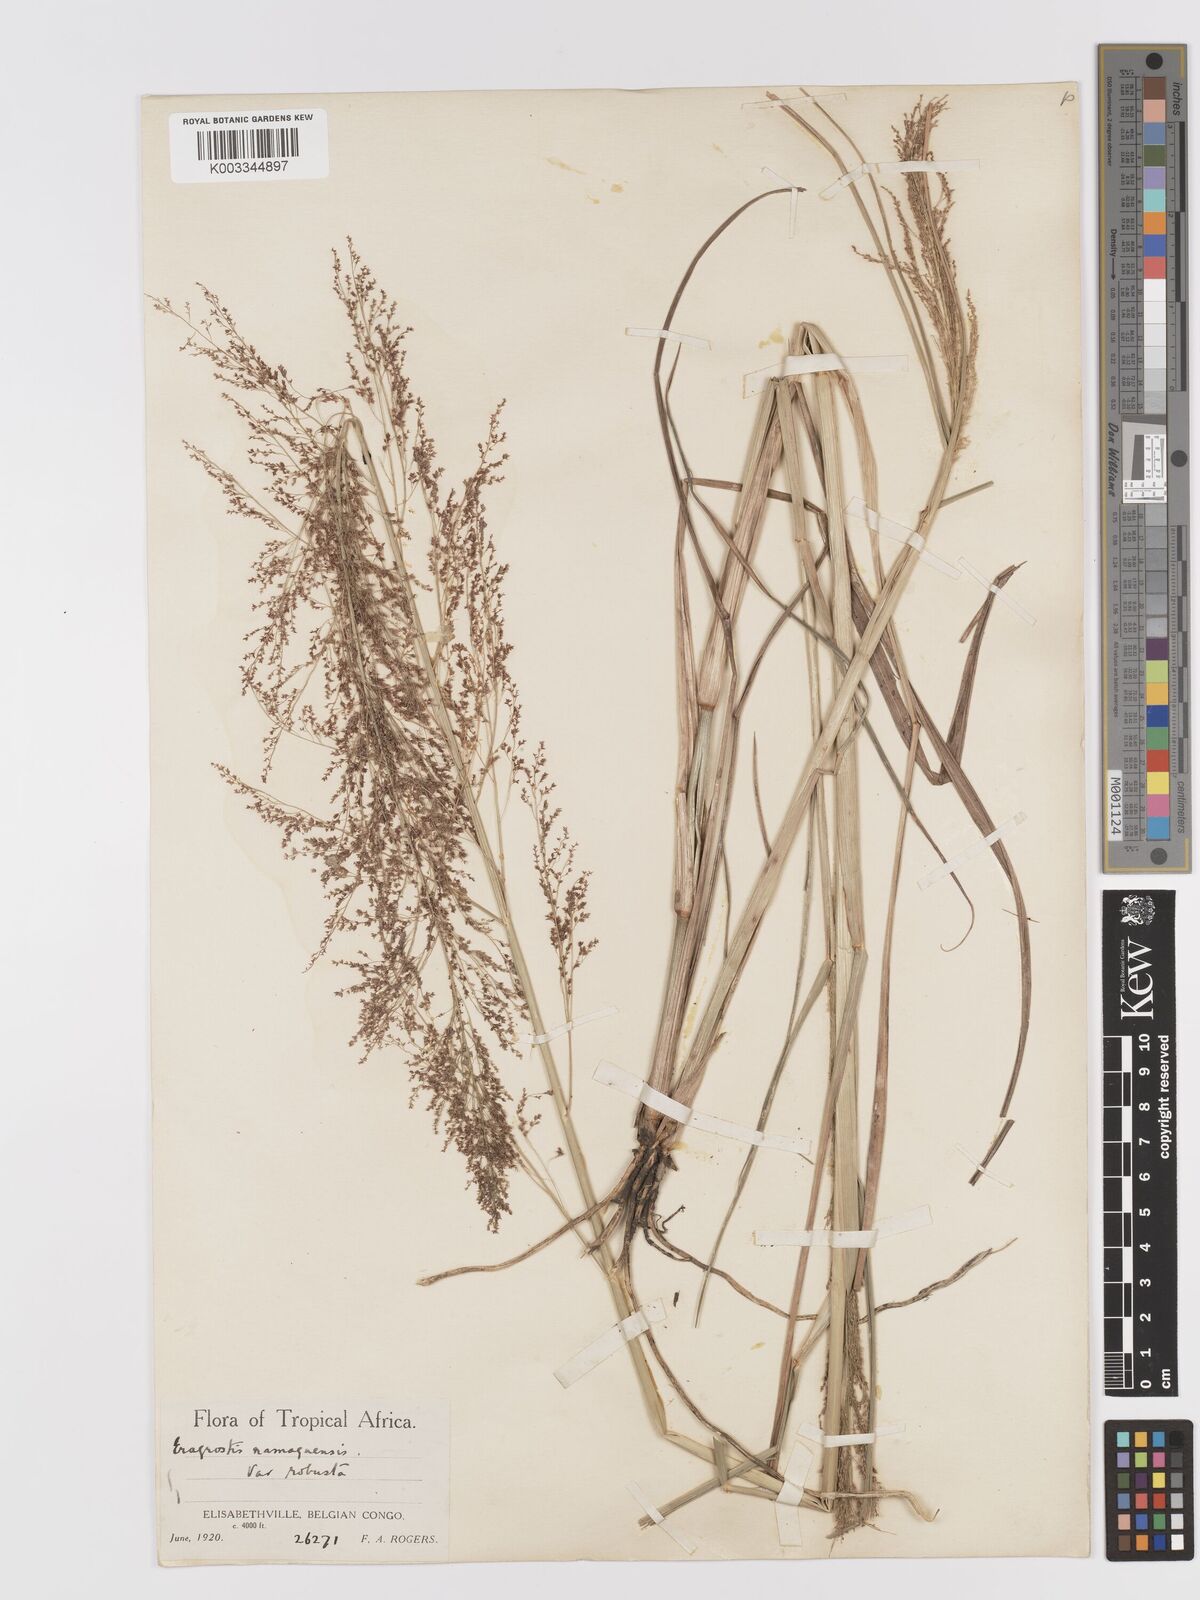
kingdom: Plantae
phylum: Tracheophyta
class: Liliopsida
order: Poales
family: Poaceae
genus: Eragrostis
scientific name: Eragrostis japonica
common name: Pond lovegrass
